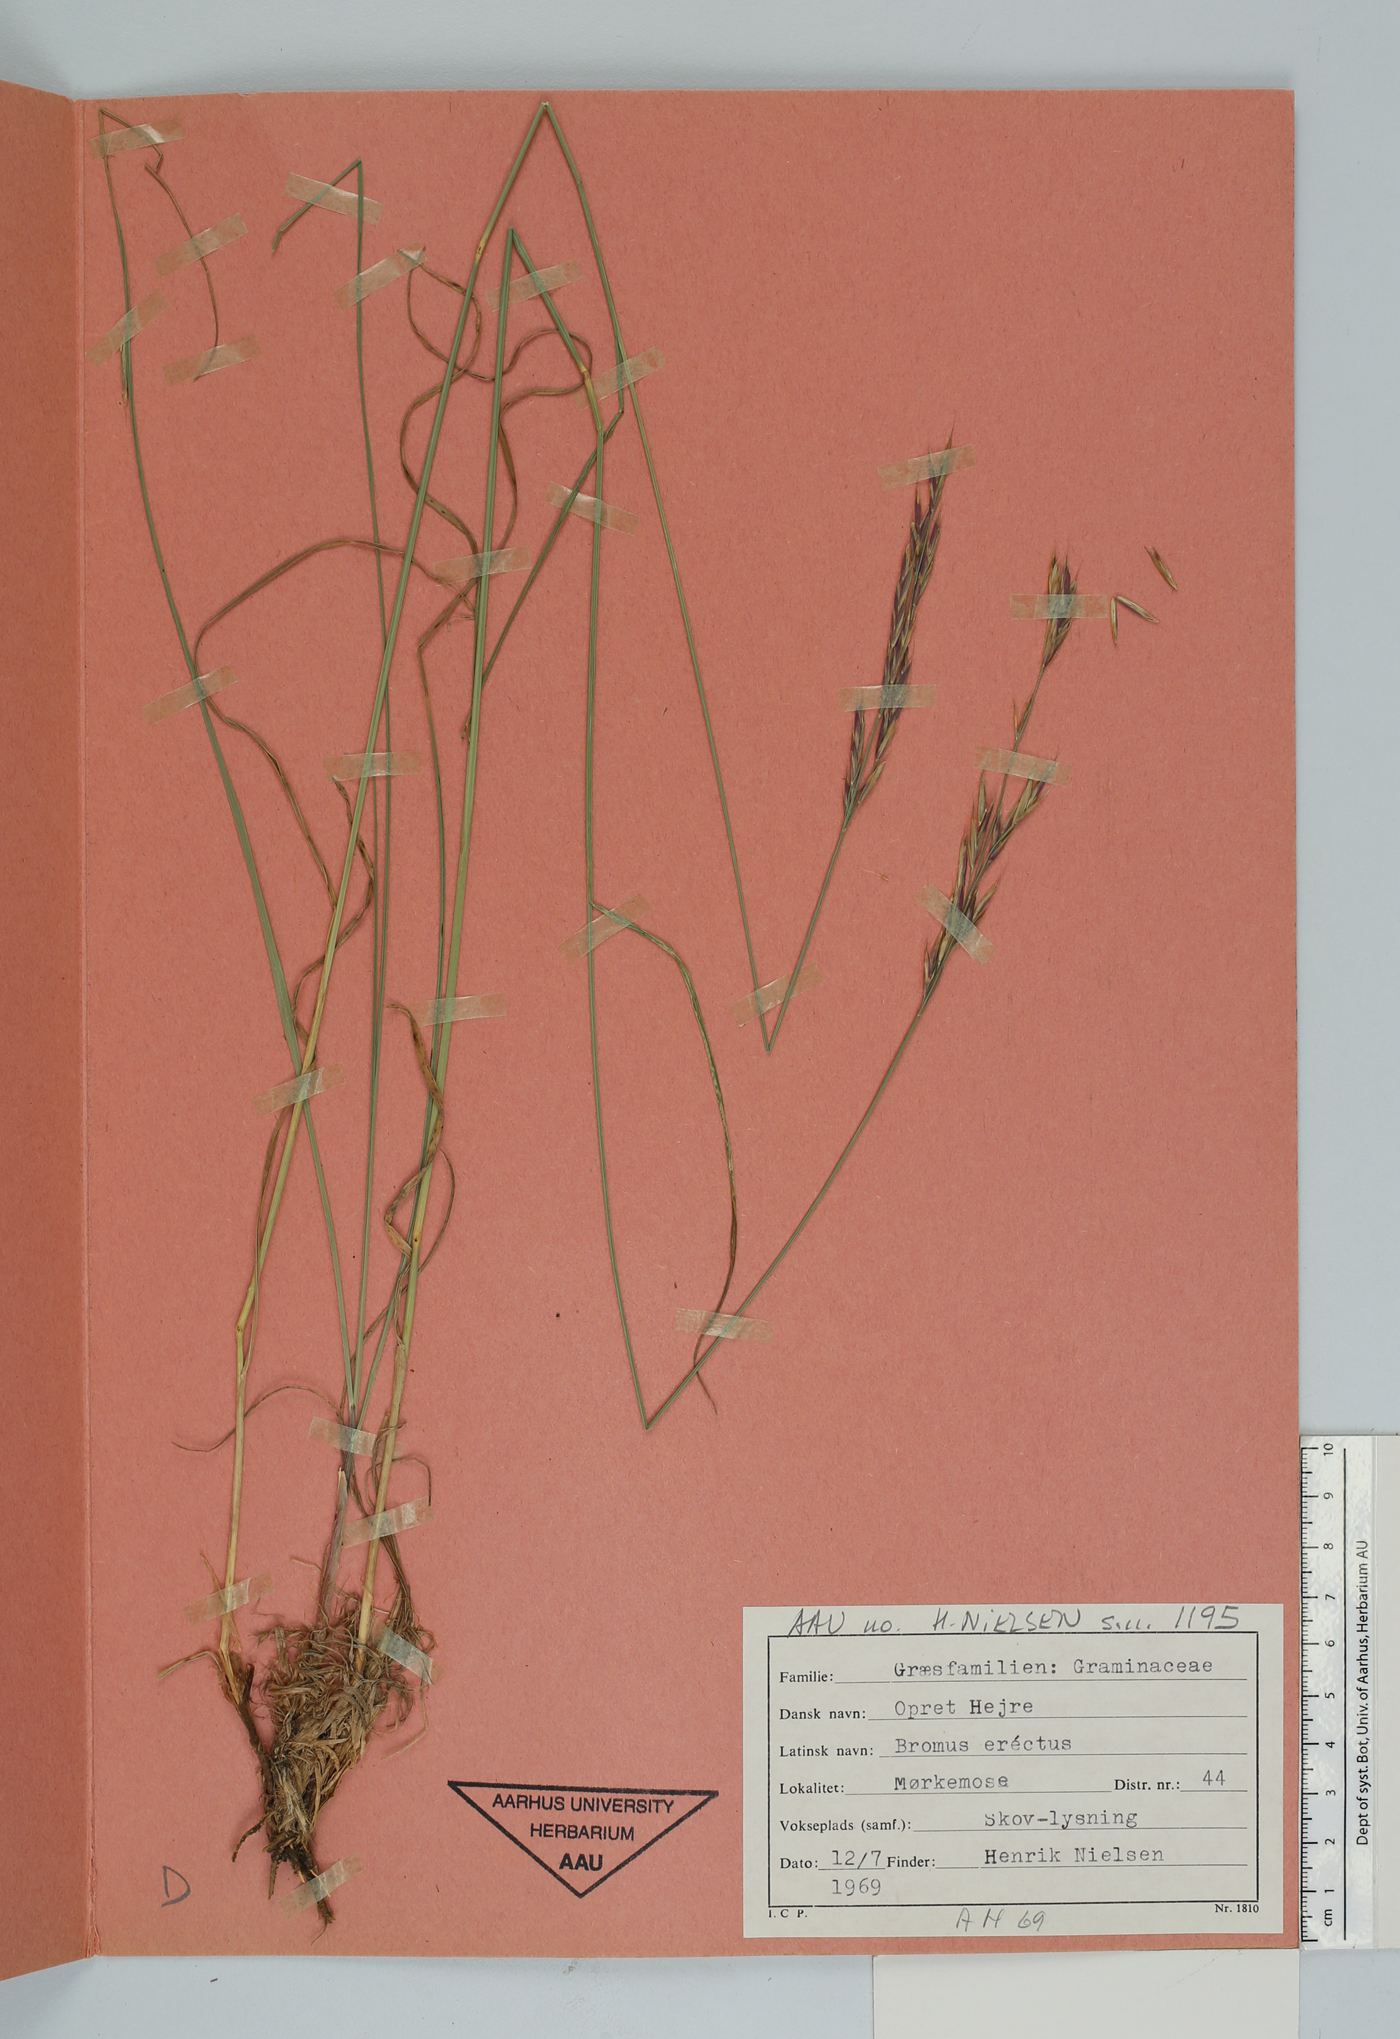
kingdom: Plantae
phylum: Tracheophyta
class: Liliopsida
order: Poales
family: Poaceae
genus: Bromus
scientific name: Bromus erectus
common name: Erect brome
